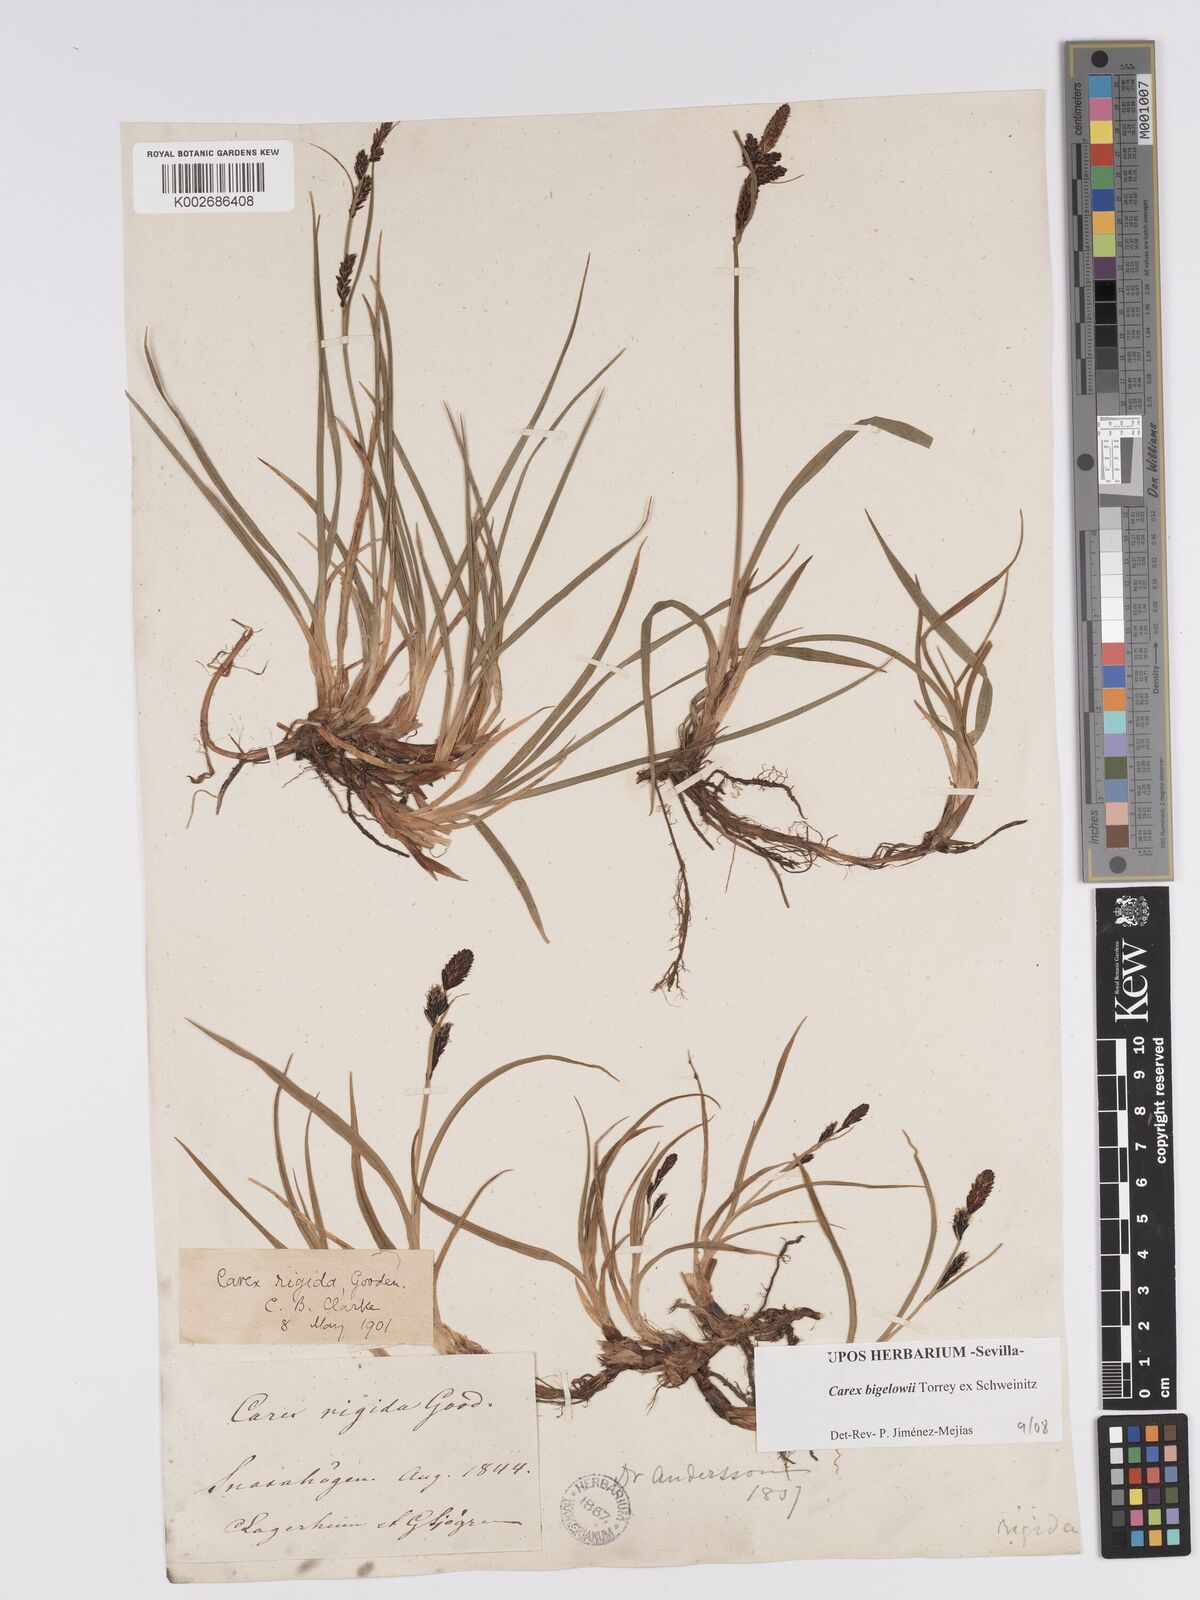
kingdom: Plantae
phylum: Tracheophyta
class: Liliopsida
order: Poales
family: Cyperaceae
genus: Carex
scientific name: Carex bigelowii
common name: Stiff sedge
